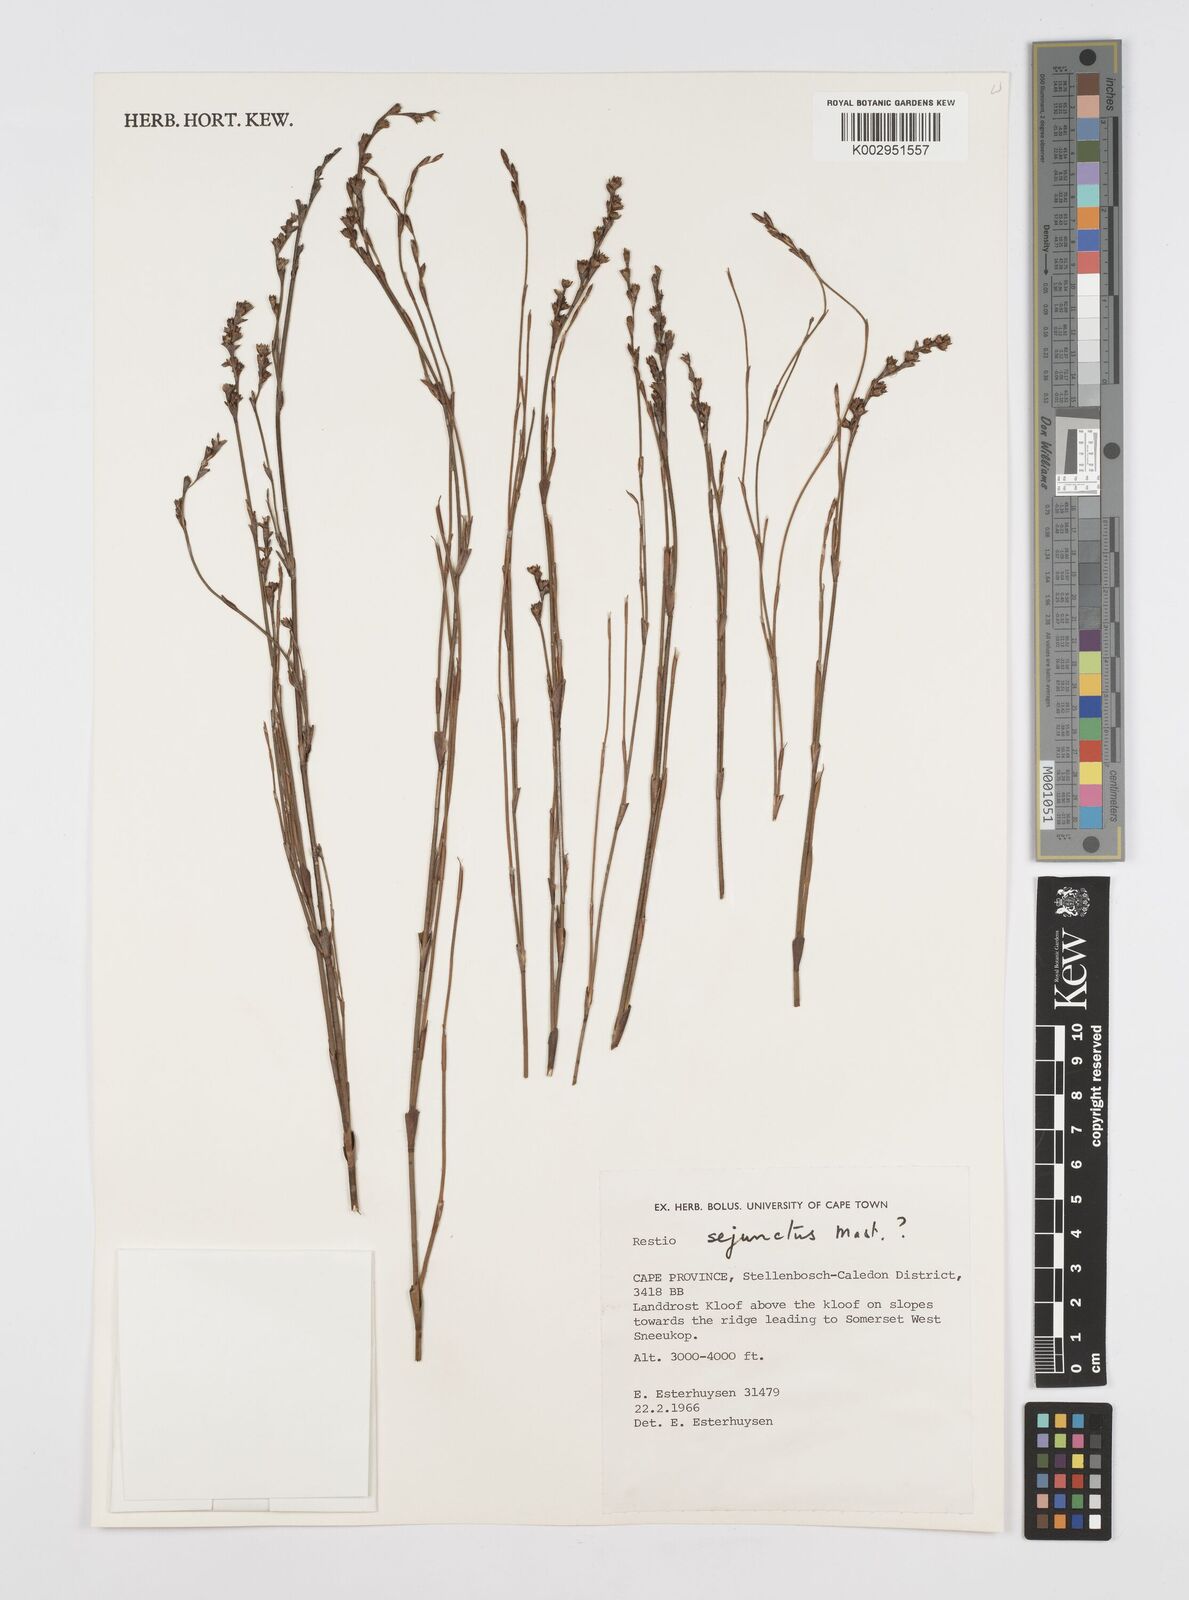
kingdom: Plantae
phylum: Tracheophyta
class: Liliopsida
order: Poales
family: Restionaceae
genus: Restio
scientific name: Restio sejunctus
